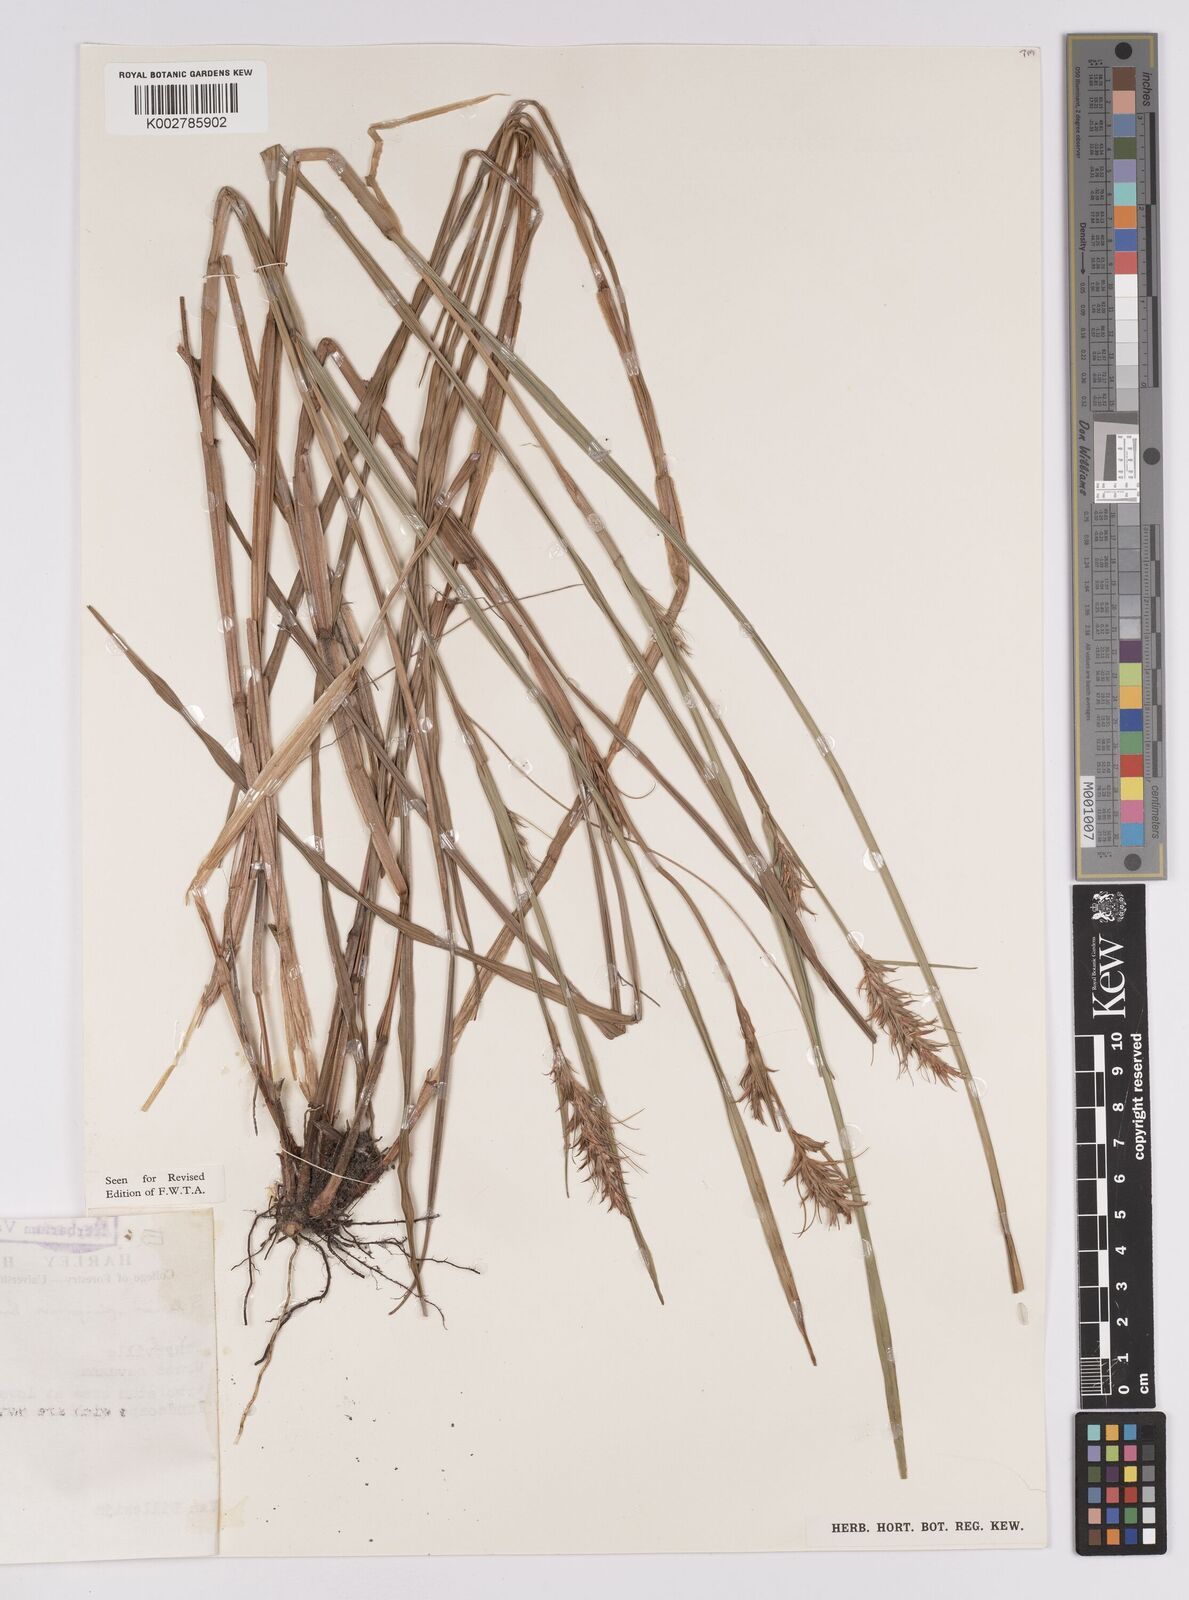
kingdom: Plantae
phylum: Tracheophyta
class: Liliopsida
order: Poales
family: Cyperaceae
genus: Scleria
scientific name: Scleria spiciformis
